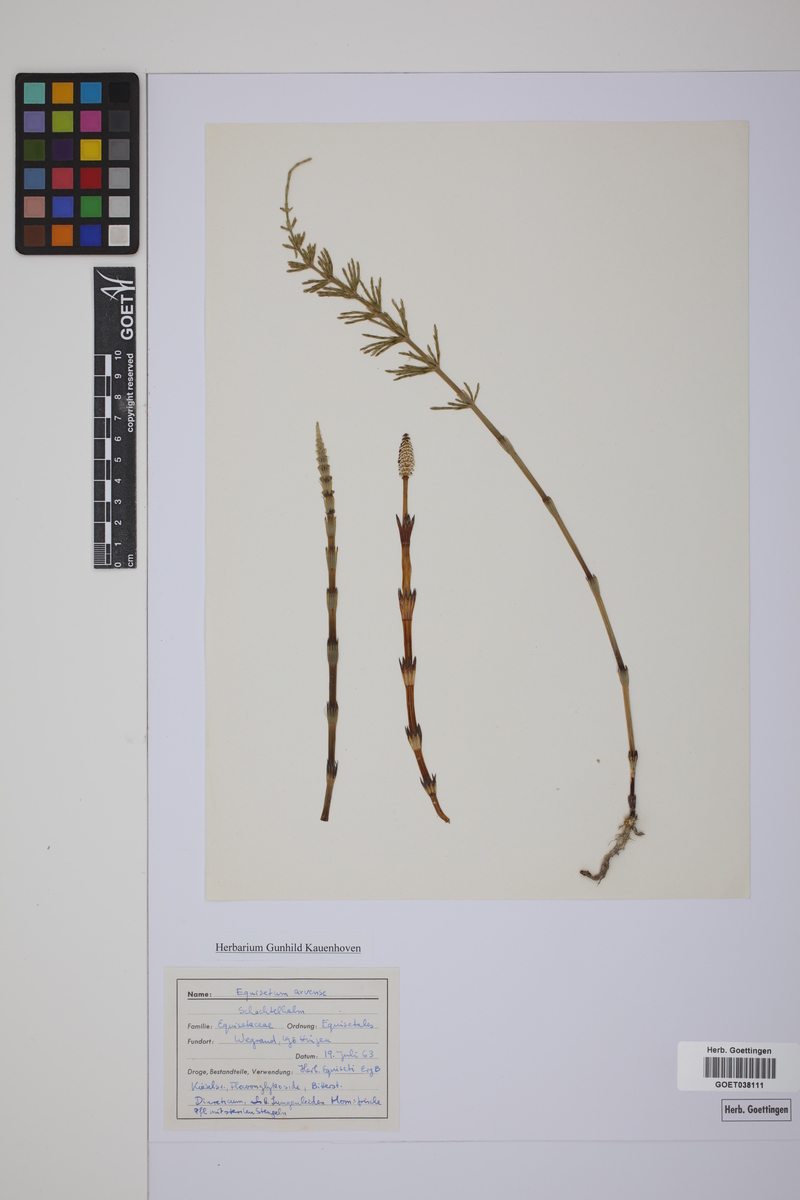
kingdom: Plantae
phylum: Tracheophyta
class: Polypodiopsida
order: Equisetales
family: Equisetaceae
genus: Equisetum
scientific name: Equisetum arvense
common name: Field horsetail
